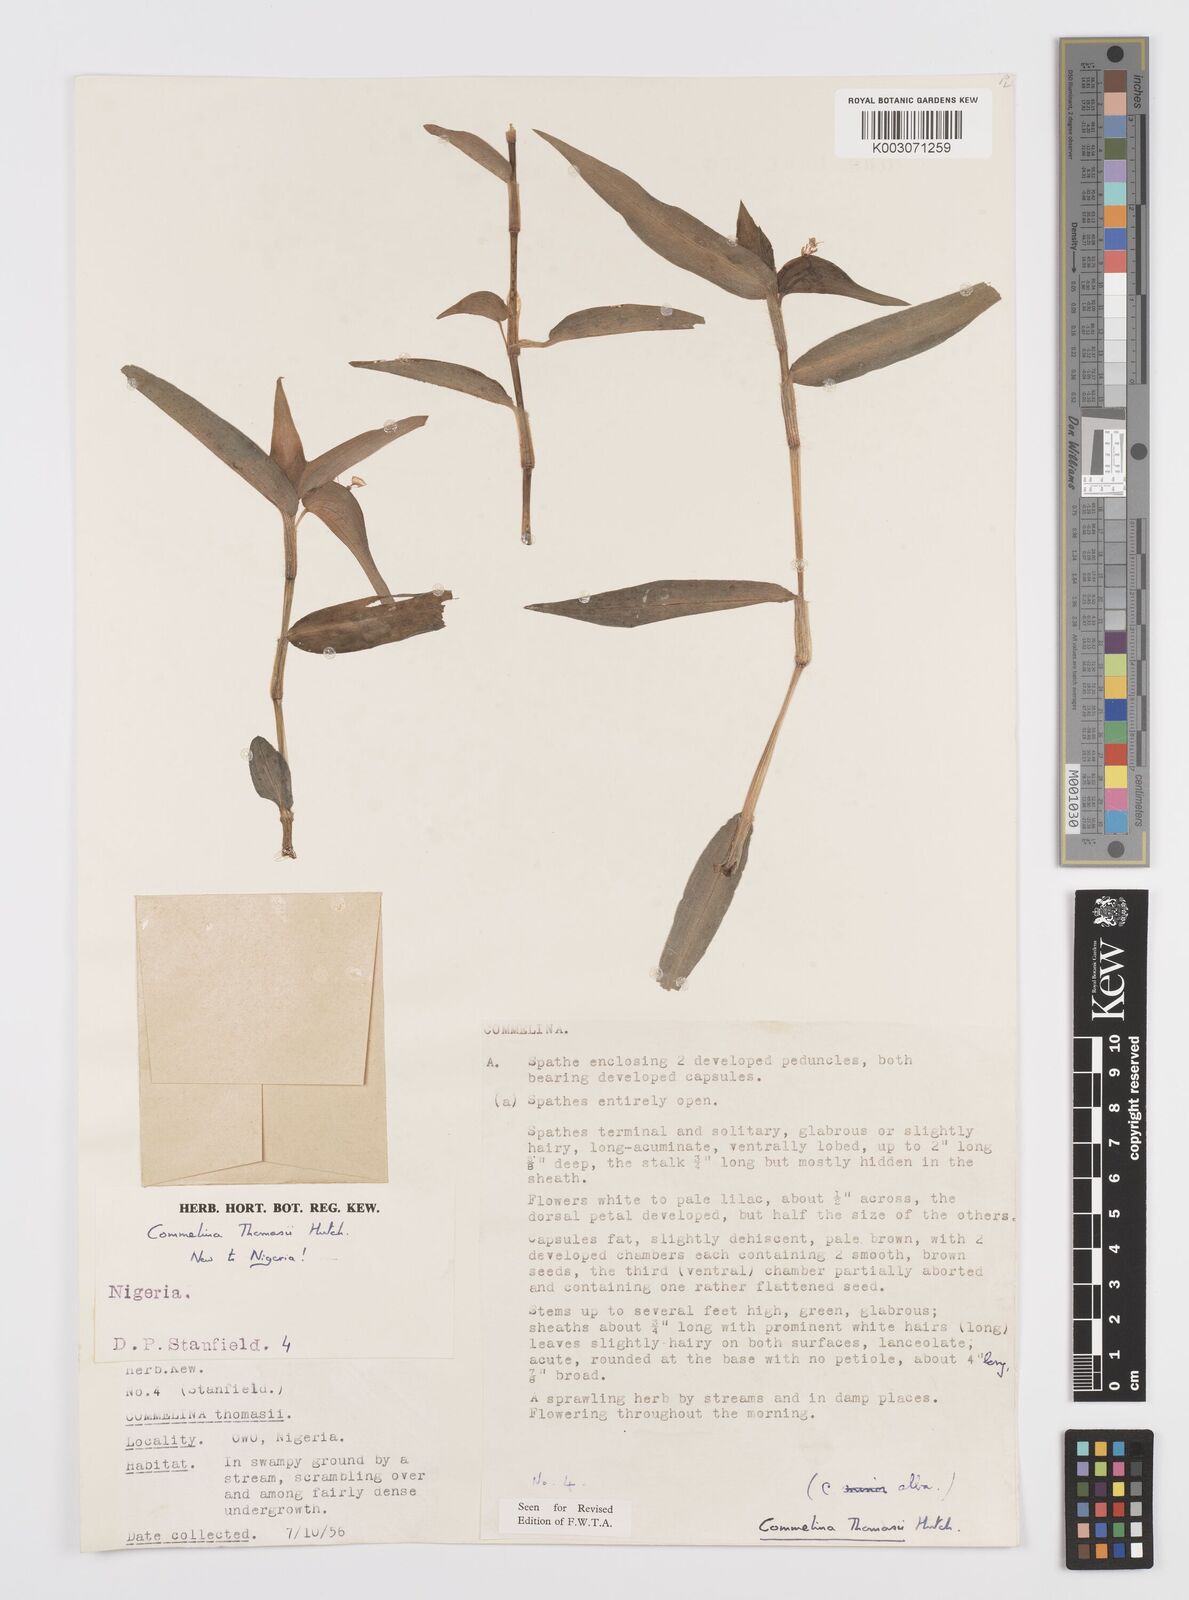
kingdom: Plantae
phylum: Tracheophyta
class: Liliopsida
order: Commelinales
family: Commelinaceae
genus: Commelina
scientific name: Commelina acutispatha
